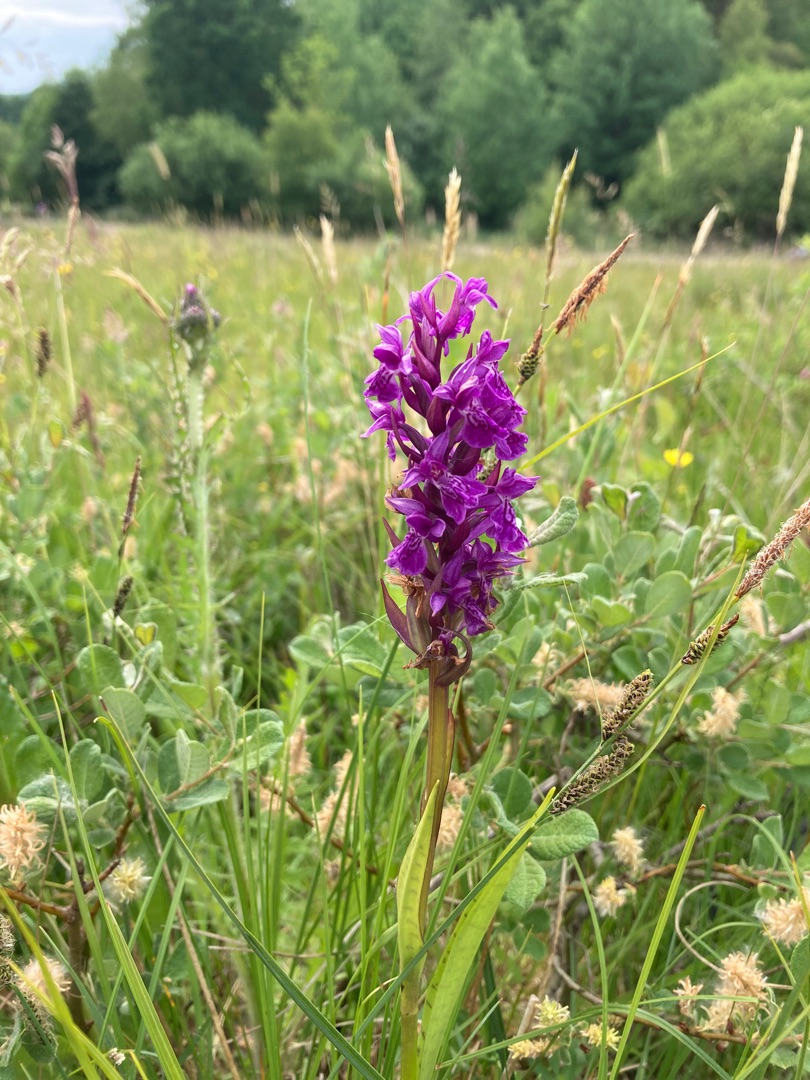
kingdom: Plantae
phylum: Tracheophyta
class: Liliopsida
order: Asparagales
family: Orchidaceae
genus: Dactylorhiza
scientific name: Dactylorhiza majalis
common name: Maj-gøgeurt
